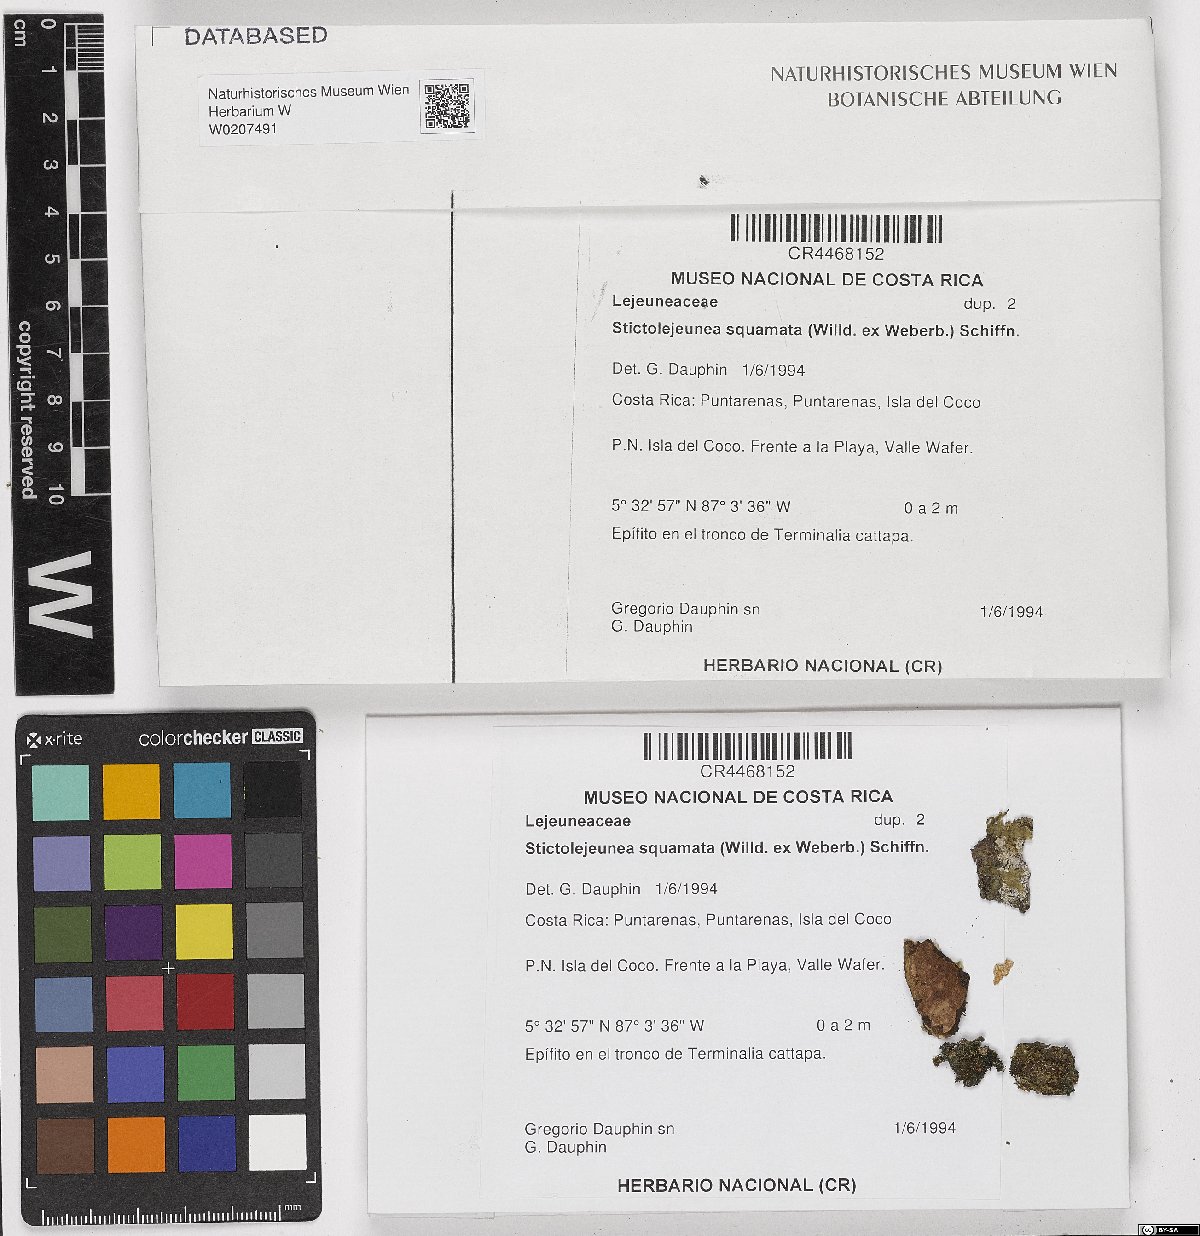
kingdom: Plantae
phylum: Marchantiophyta
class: Jungermanniopsida
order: Porellales
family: Lejeuneaceae
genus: Stictolejeunea
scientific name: Stictolejeunea squamata
